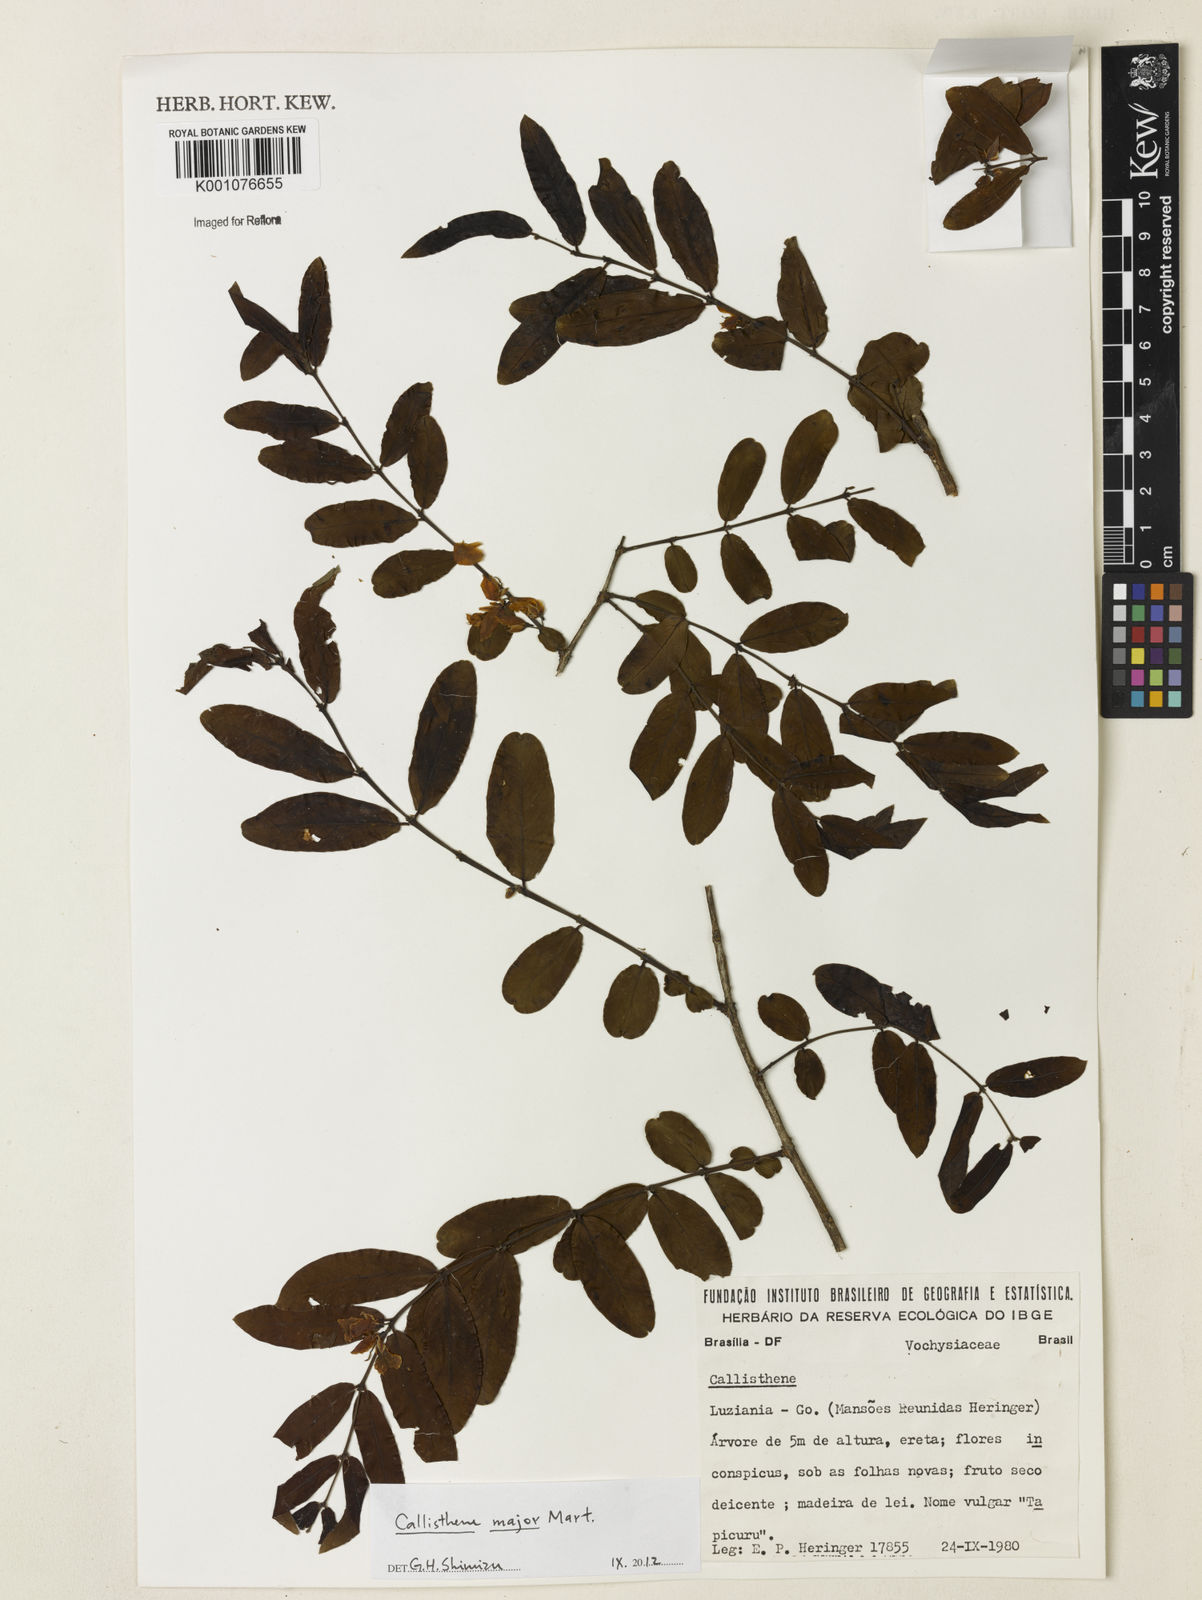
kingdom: Plantae
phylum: Tracheophyta
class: Magnoliopsida
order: Myrtales
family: Vochysiaceae
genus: Callisthene
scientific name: Callisthene major
